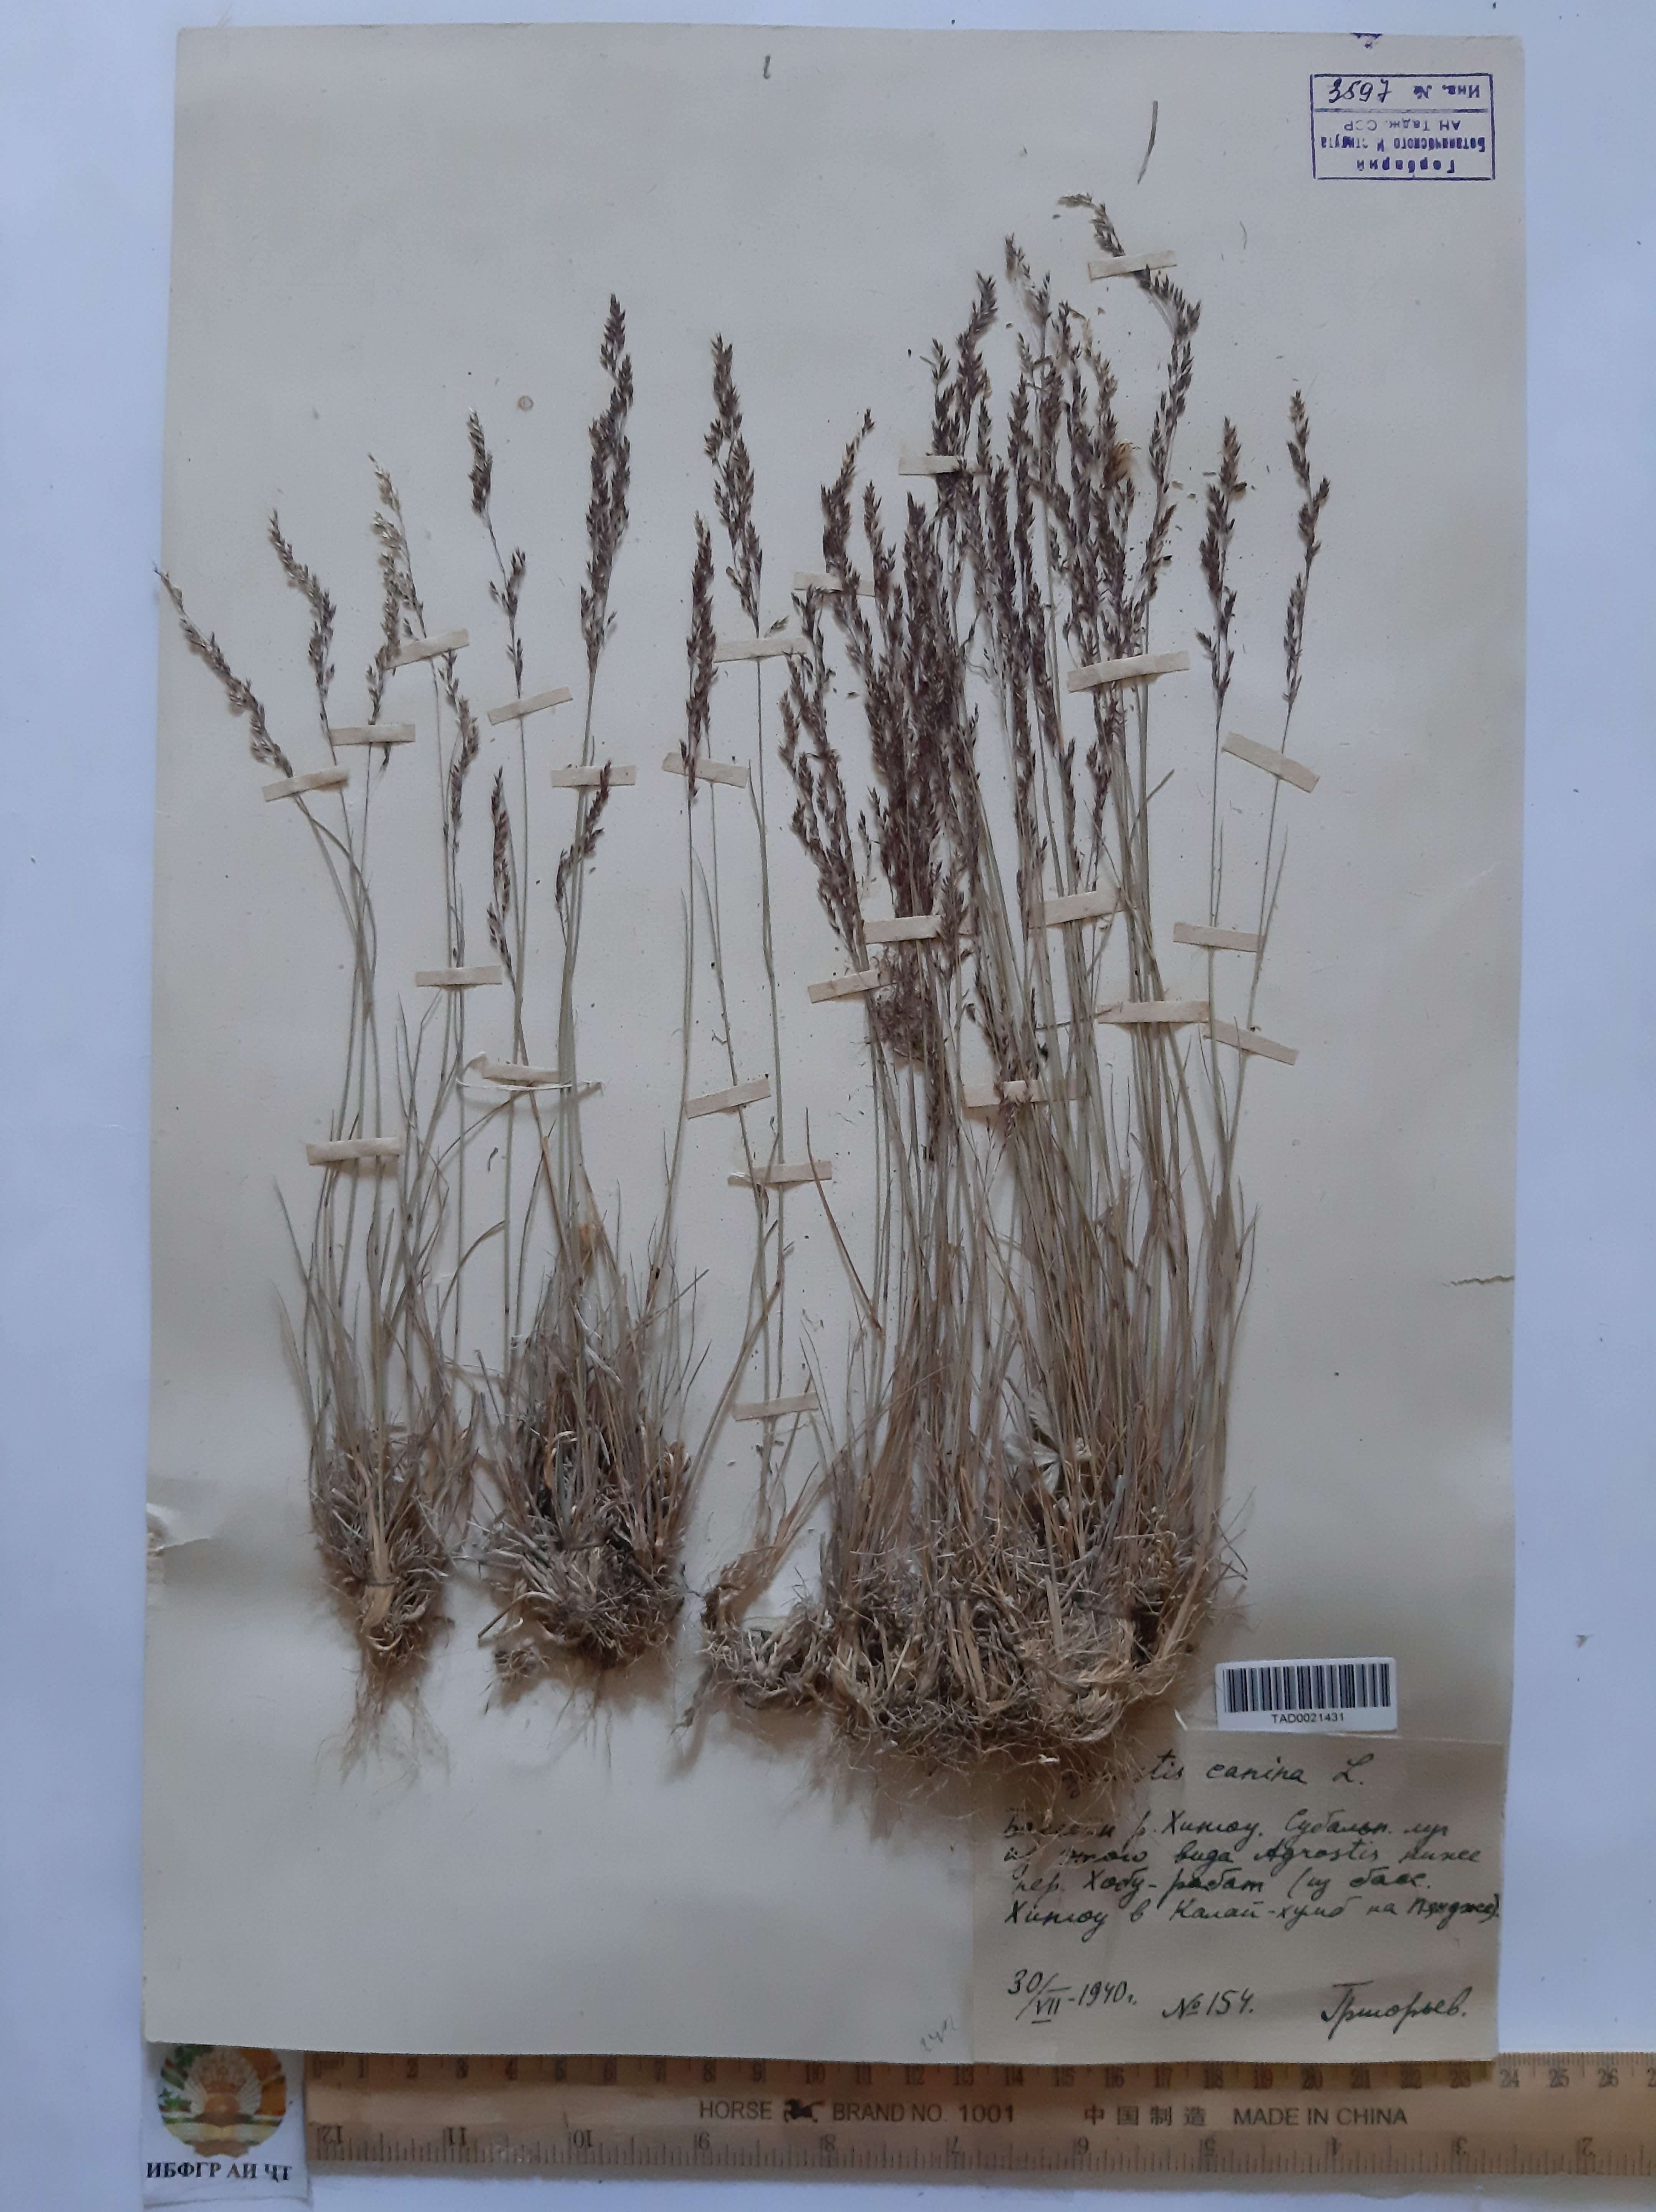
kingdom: Plantae
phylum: Tracheophyta
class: Liliopsida
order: Poales
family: Poaceae
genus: Agrostis
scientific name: Agrostis canina
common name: Velvet bent
